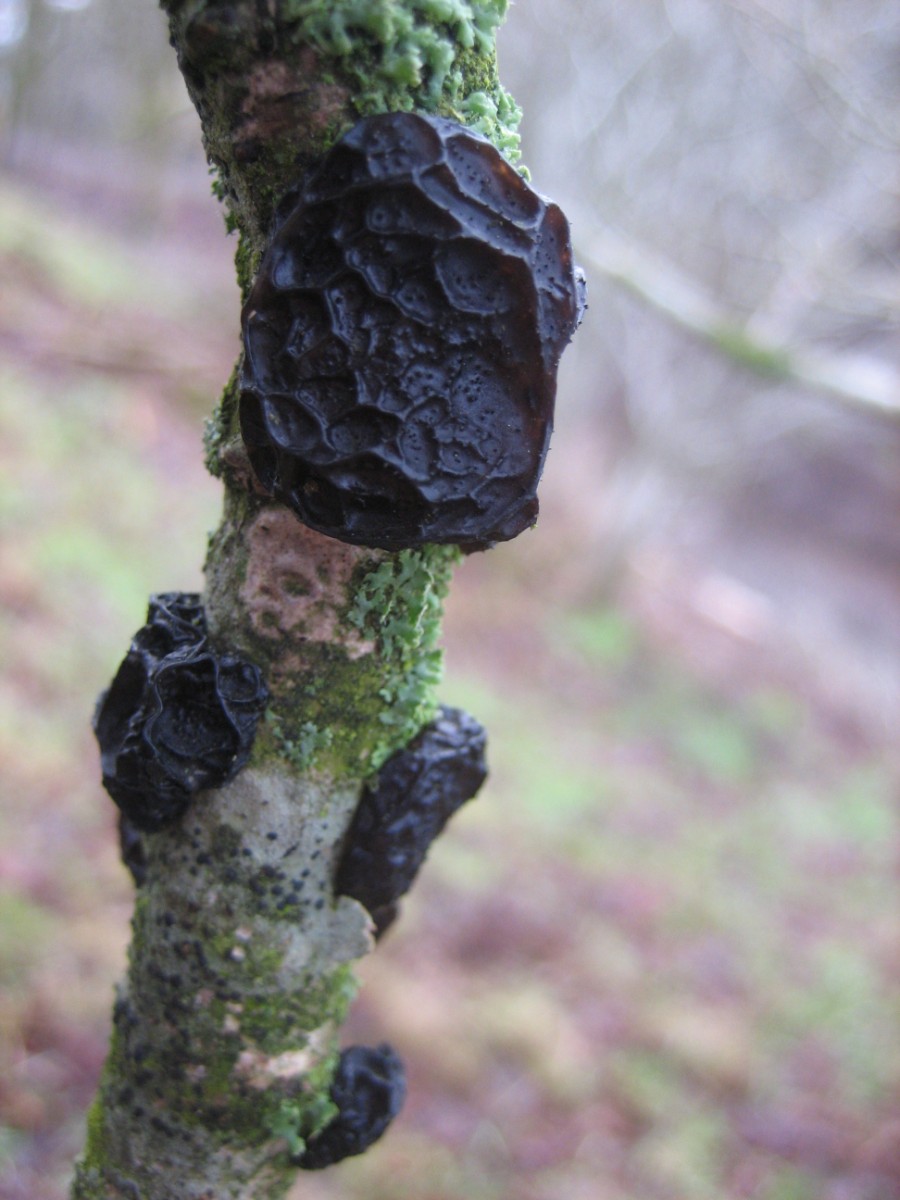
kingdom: Fungi
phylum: Basidiomycota
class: Agaricomycetes
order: Auriculariales
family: Auriculariaceae
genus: Exidia
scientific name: Exidia glandulosa
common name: ege-bævretop
